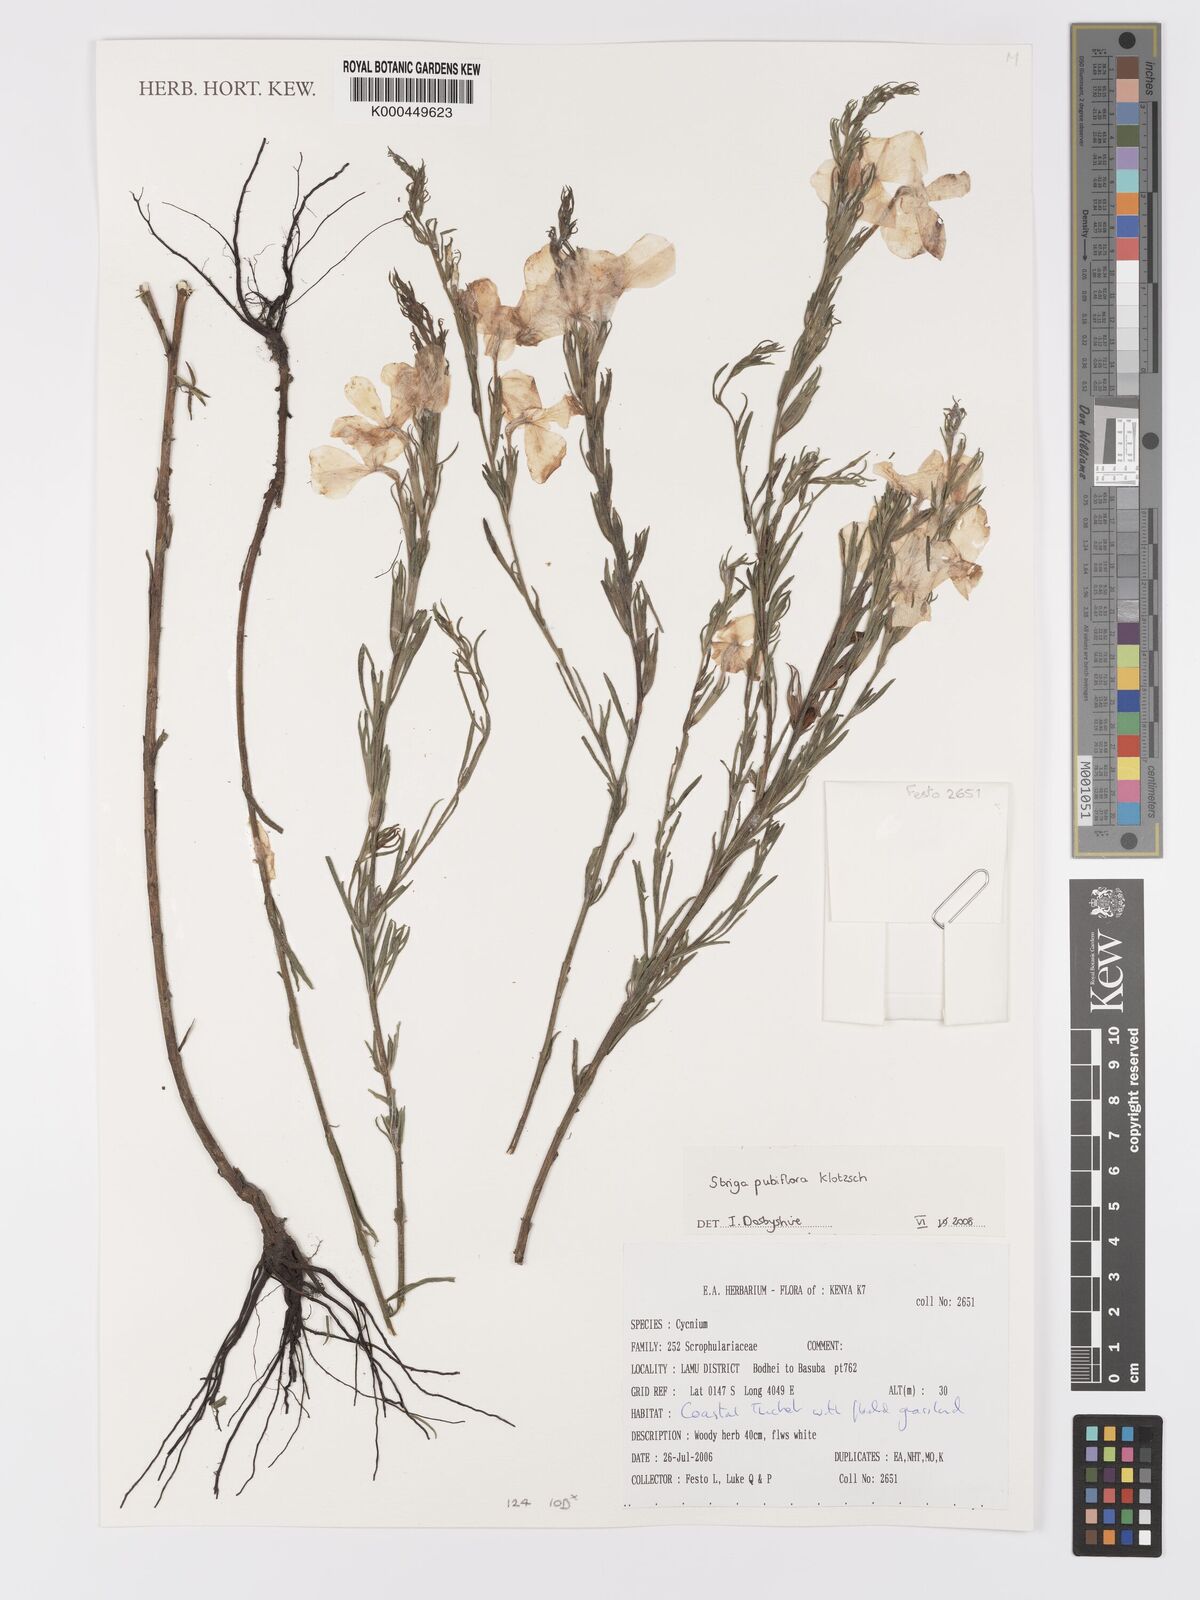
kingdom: Plantae
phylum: Tracheophyta
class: Magnoliopsida
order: Lamiales
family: Orobanchaceae
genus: Striga
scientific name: Striga pubiflora
